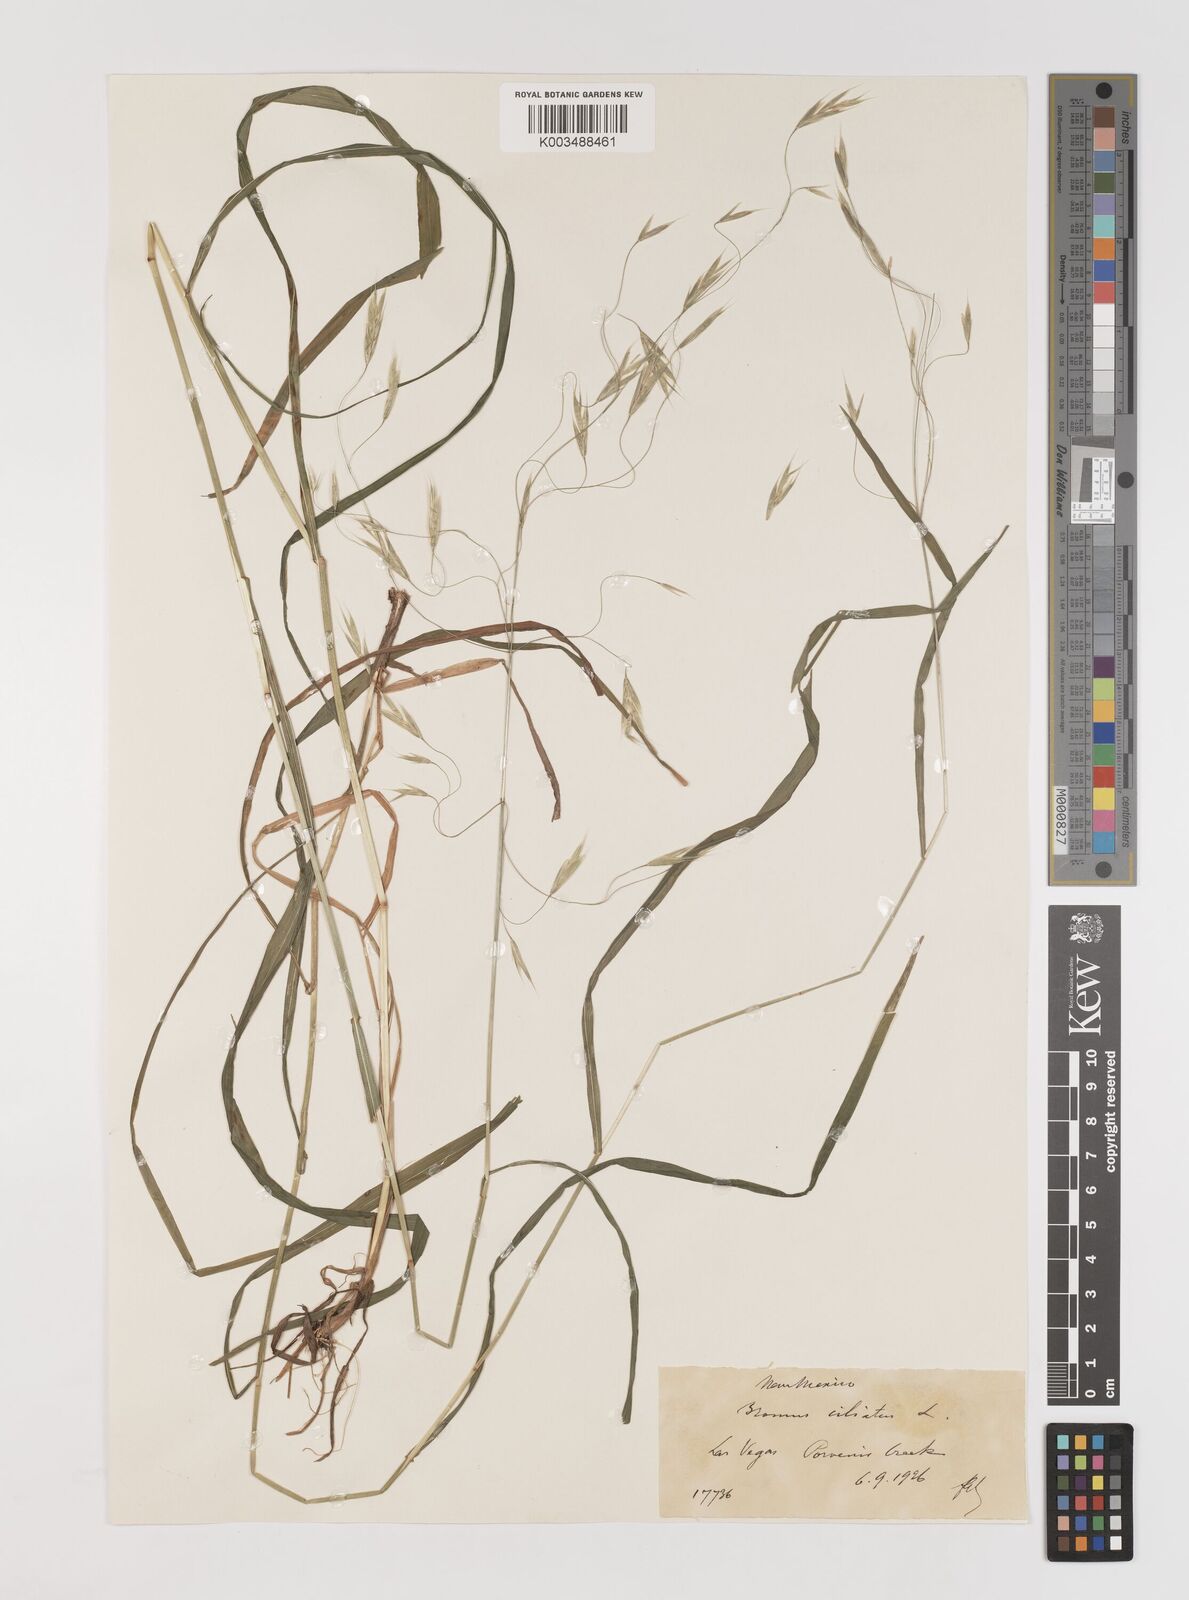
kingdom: Plantae
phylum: Tracheophyta
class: Liliopsida
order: Poales
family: Poaceae
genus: Bromus
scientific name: Bromus ciliatus
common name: Fringe brome
